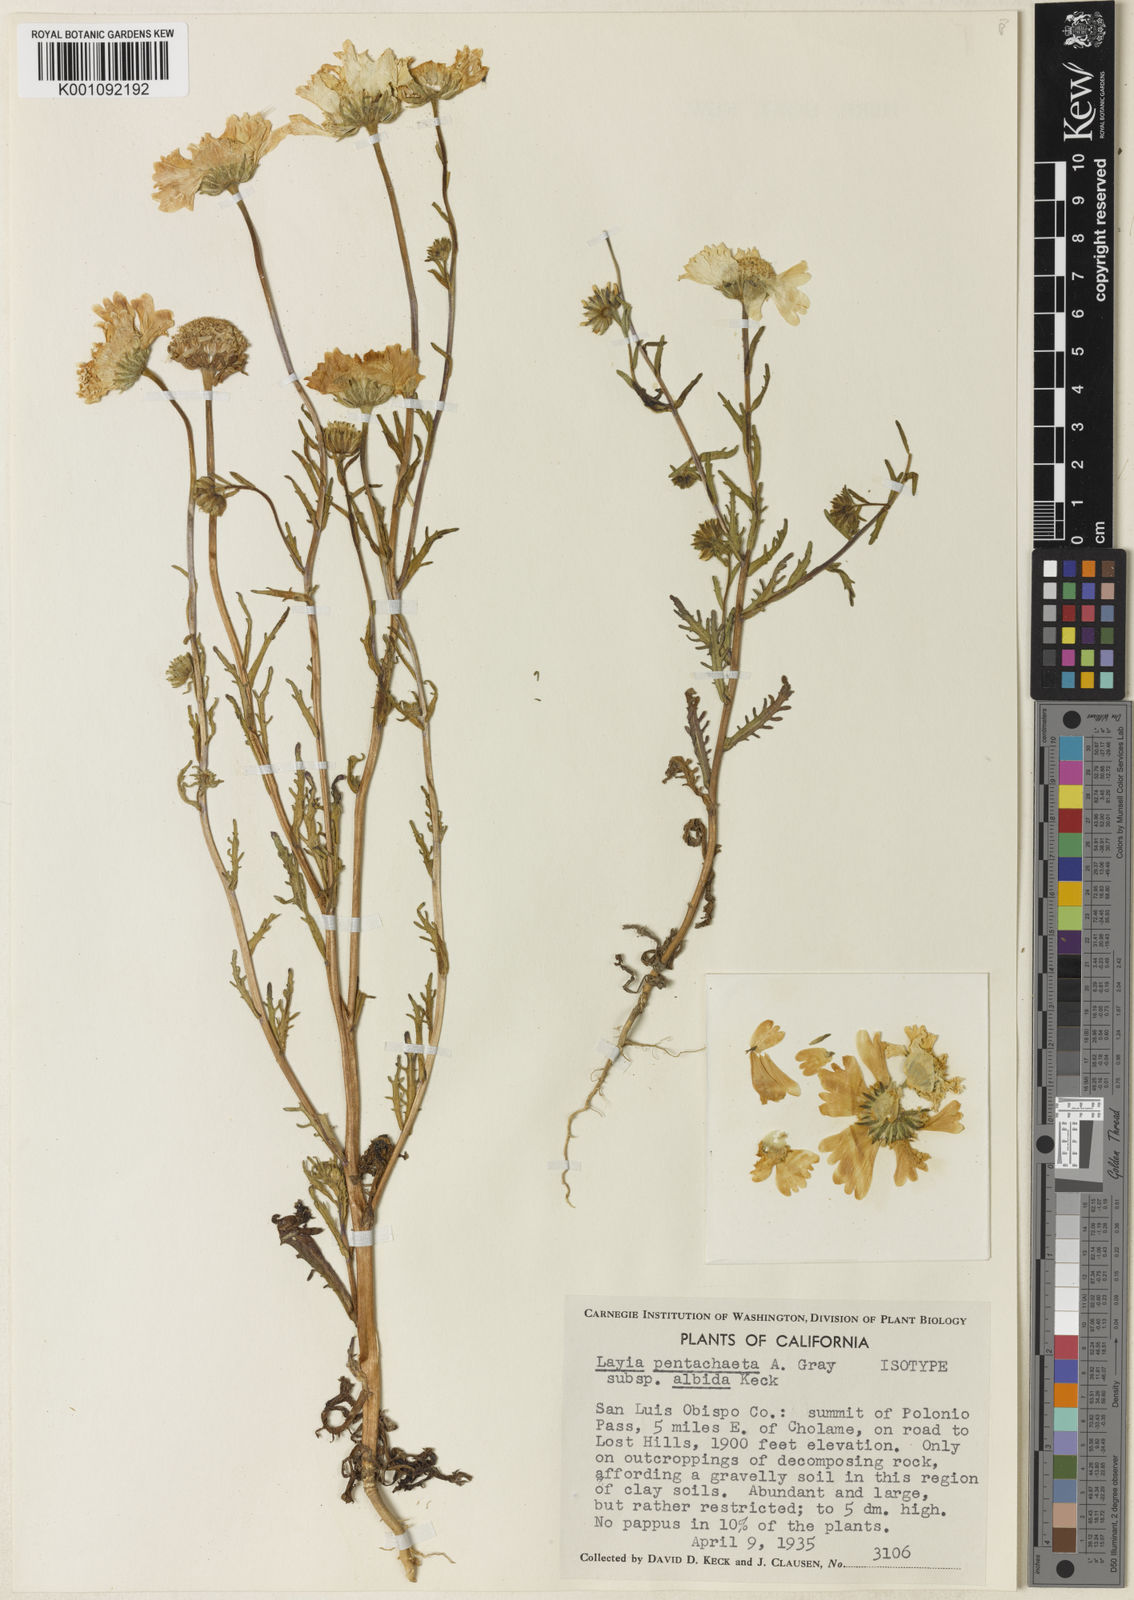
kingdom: Plantae
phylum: Tracheophyta
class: Magnoliopsida
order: Asterales
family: Asteraceae
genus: Layia
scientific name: Layia pentachaeta
